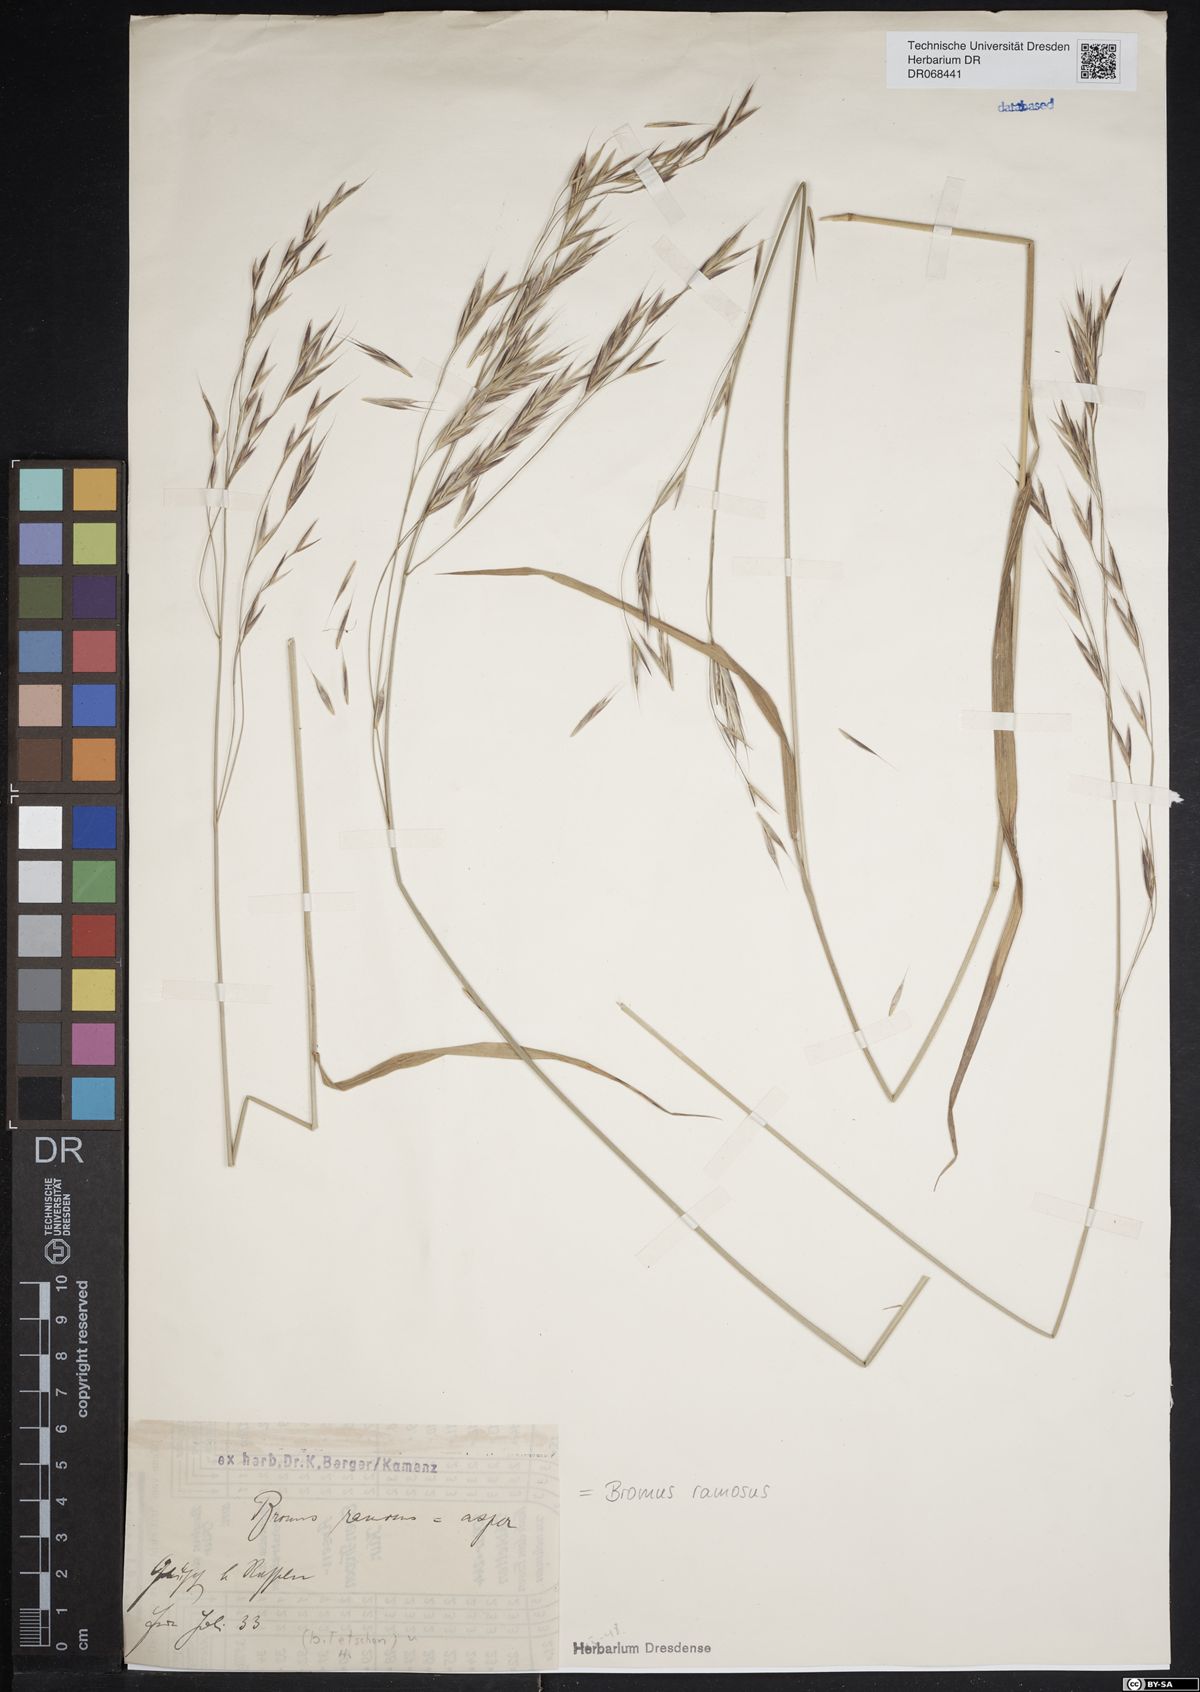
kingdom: Plantae
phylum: Tracheophyta
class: Liliopsida
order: Poales
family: Poaceae
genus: Bromus
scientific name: Bromus ramosus
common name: Hairy brome
